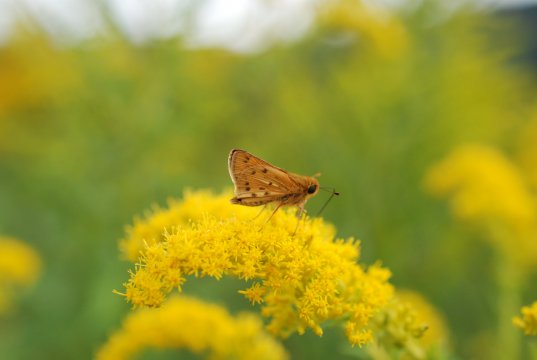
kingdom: Animalia
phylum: Arthropoda
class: Insecta
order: Lepidoptera
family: Hesperiidae
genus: Hylephila
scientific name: Hylephila phyleus
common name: Fiery Skipper
